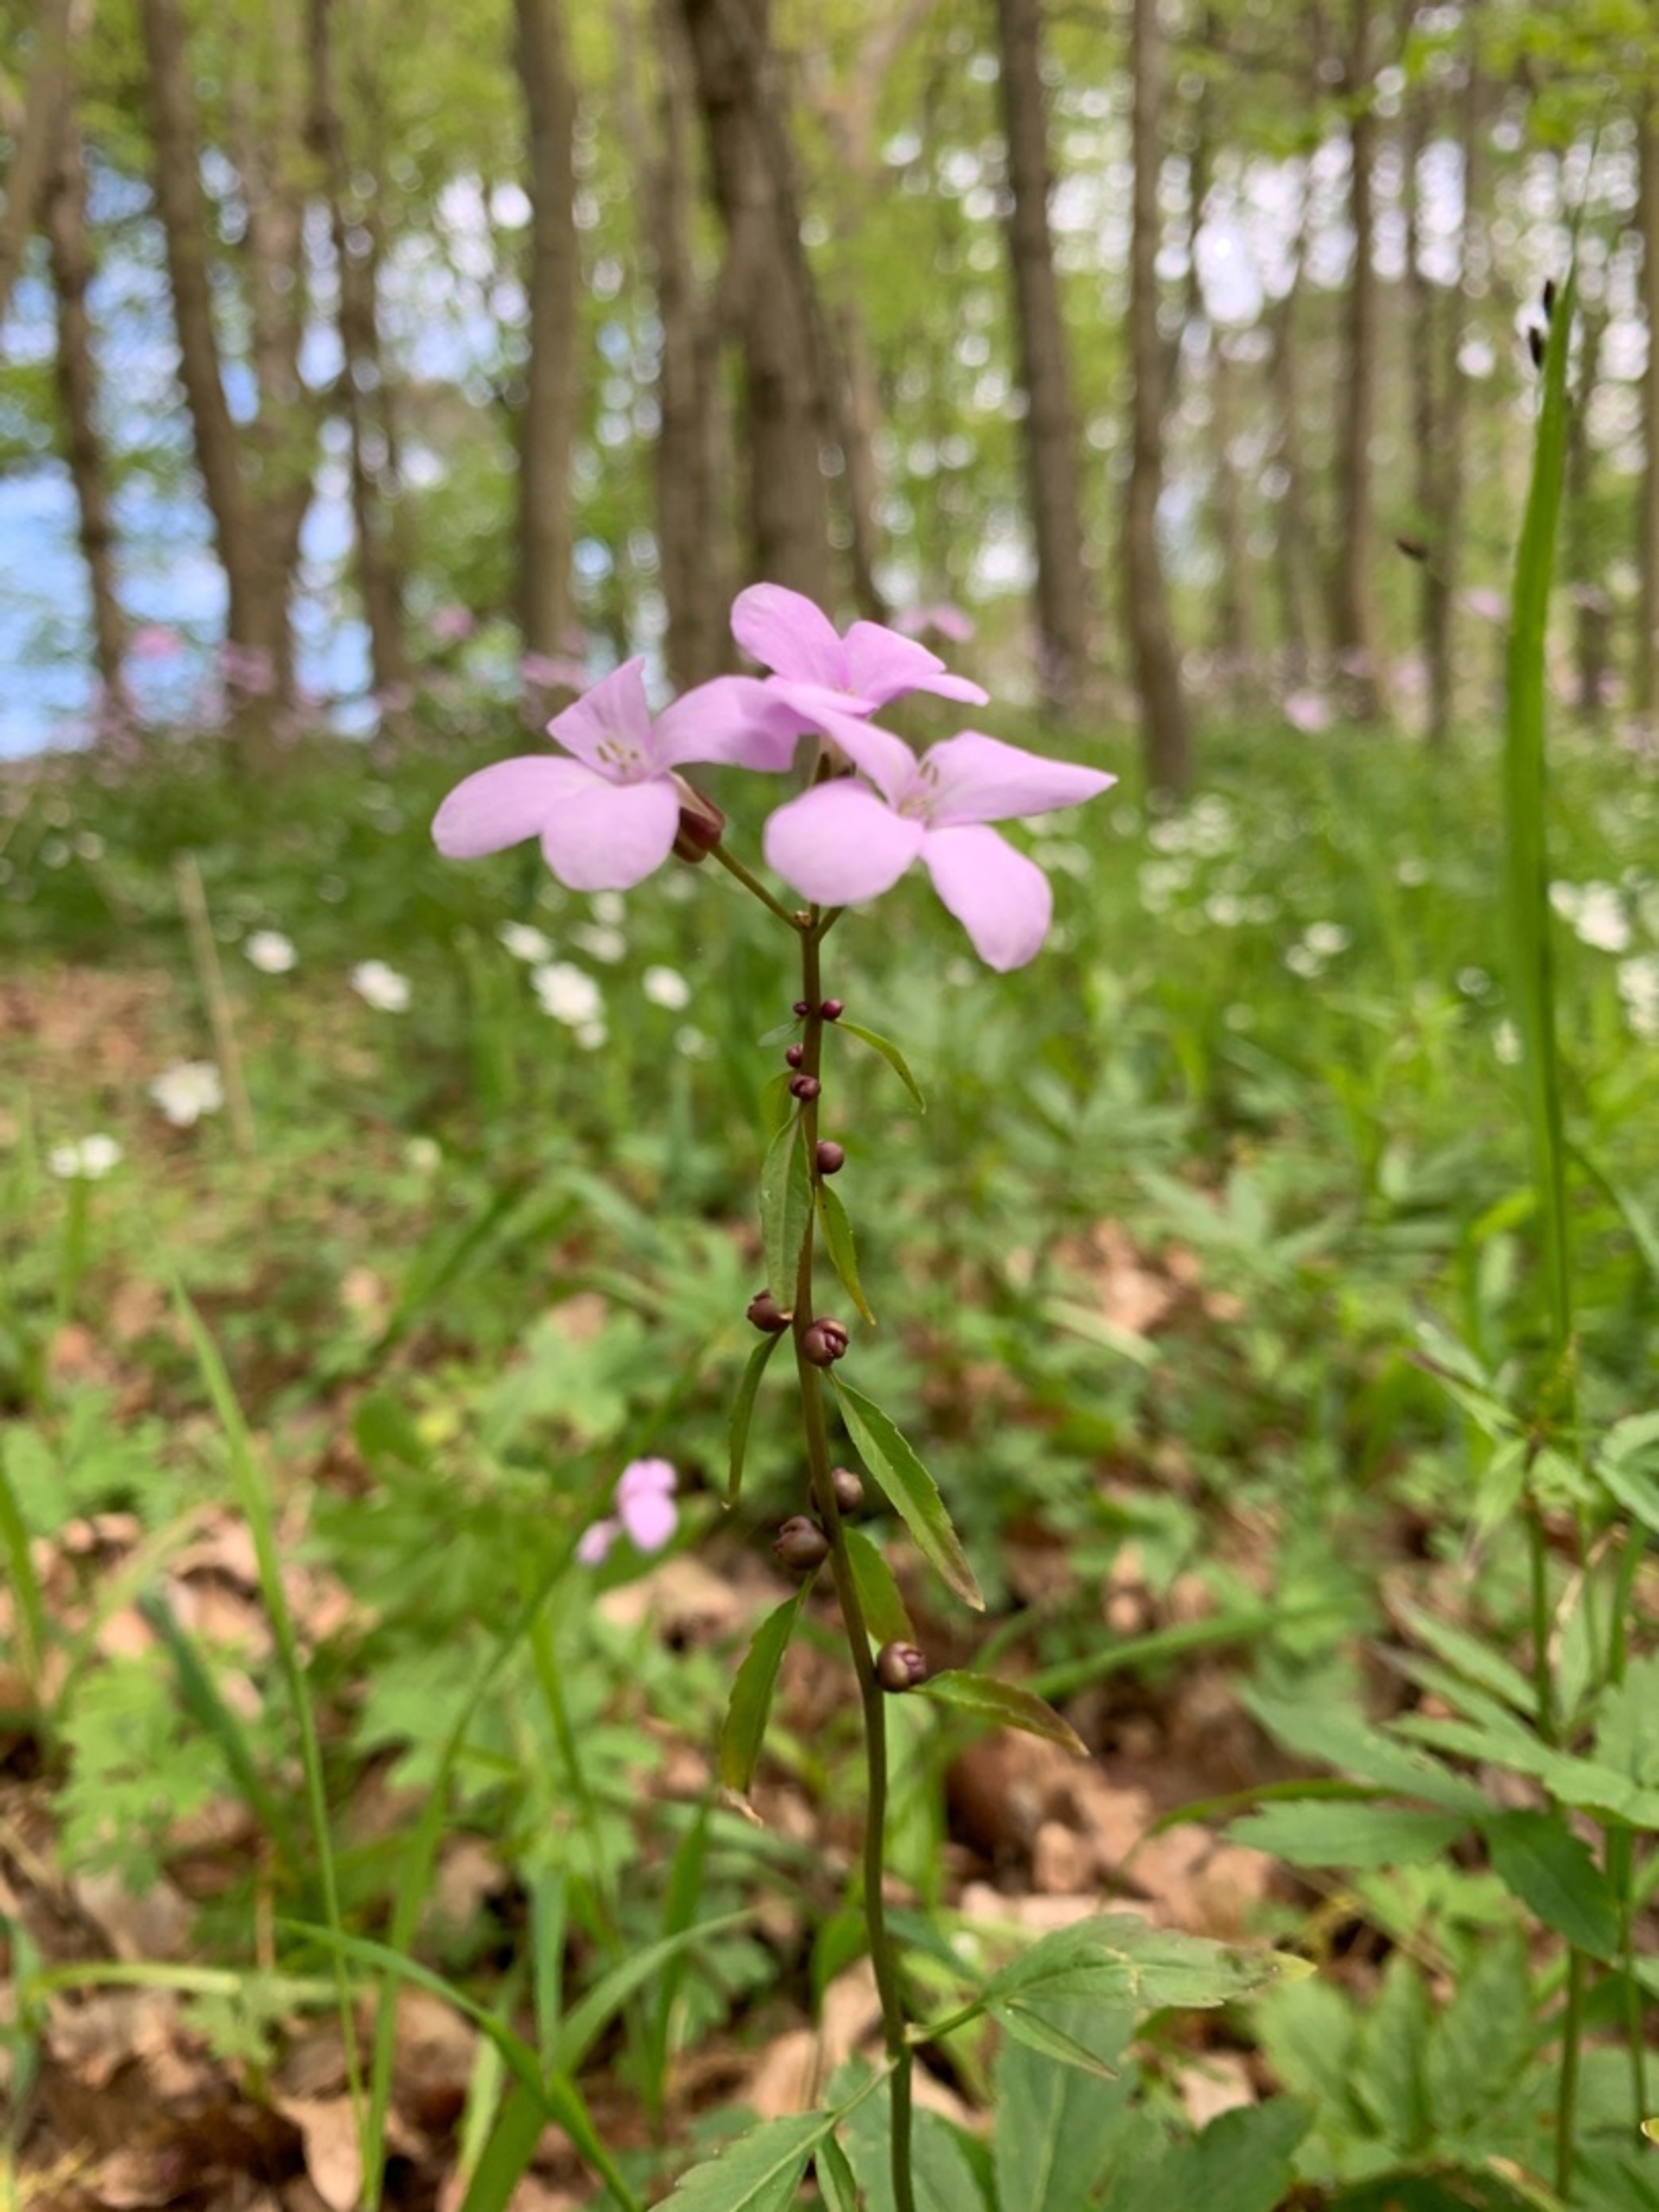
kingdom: Plantae
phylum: Tracheophyta
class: Magnoliopsida
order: Brassicales
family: Brassicaceae
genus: Cardamine
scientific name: Cardamine bulbifera
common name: Tandrod
